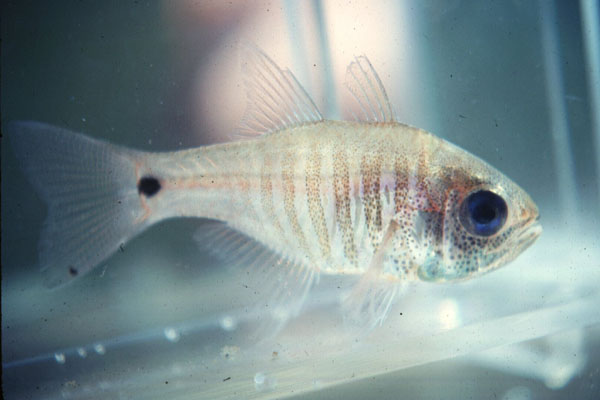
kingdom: Animalia
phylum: Chordata
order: Perciformes
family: Apogonidae
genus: Taeniamia
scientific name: Taeniamia lineolata
